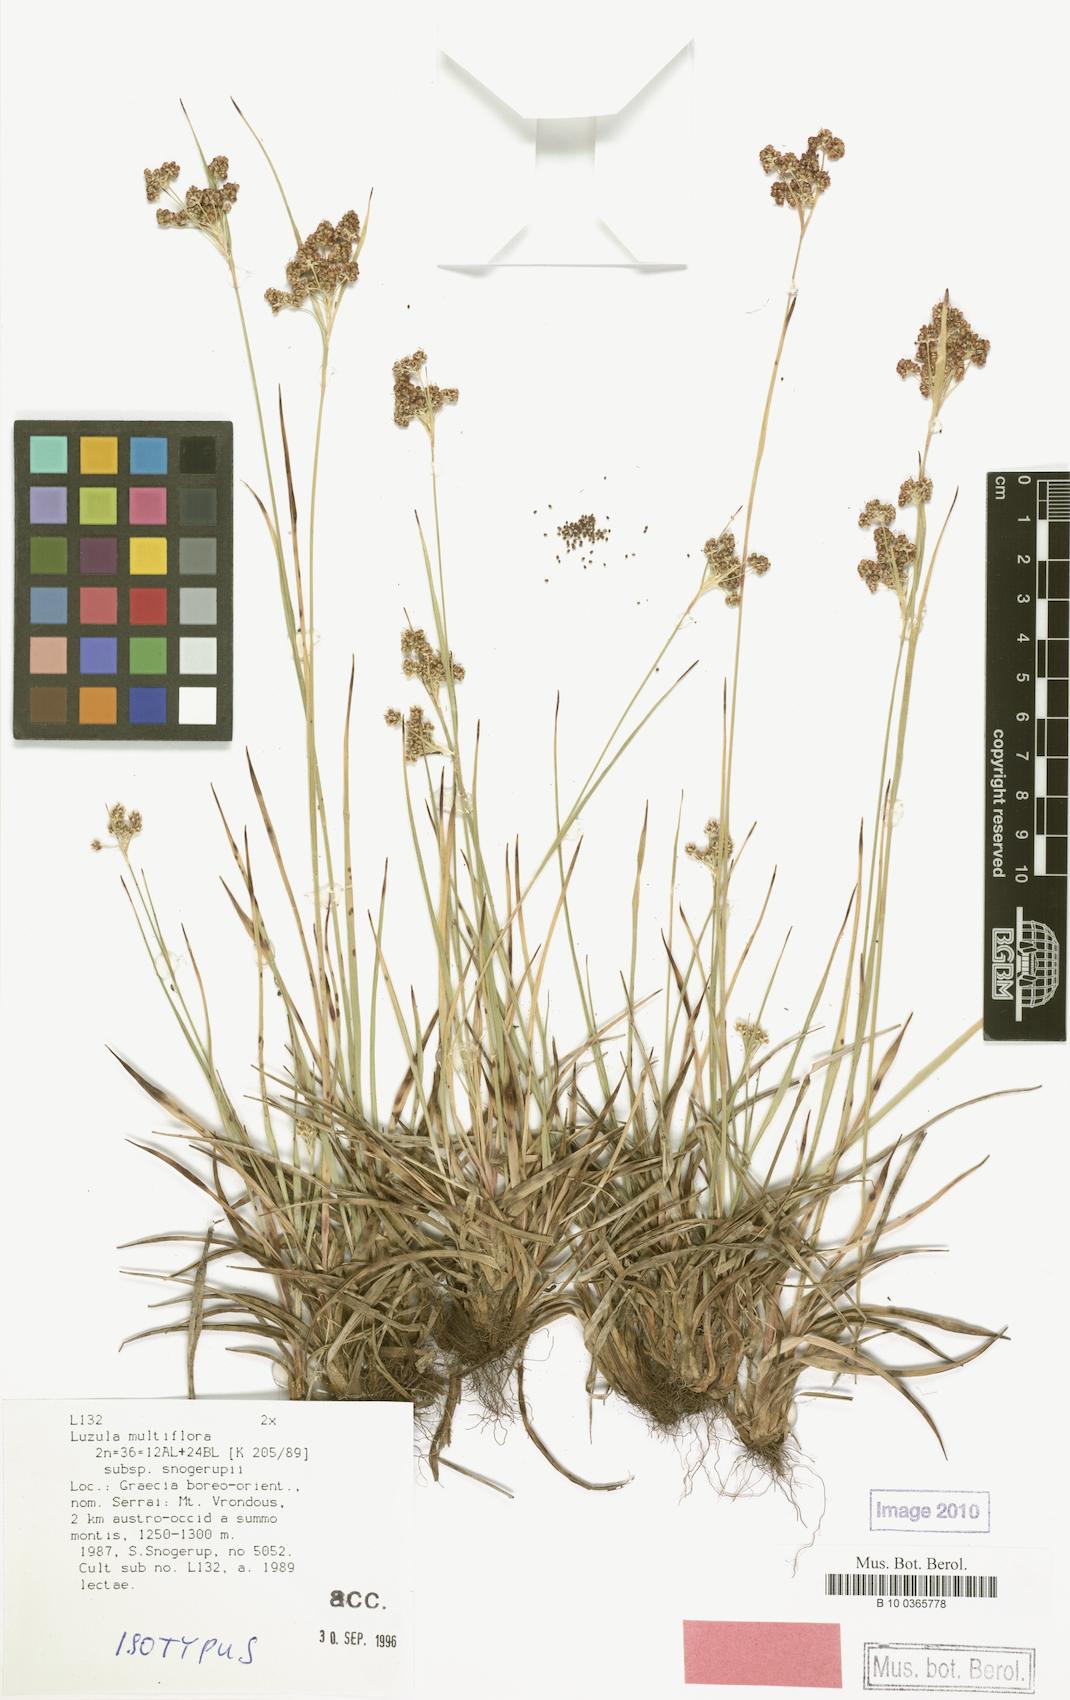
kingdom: Plantae
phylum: Tracheophyta
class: Liliopsida
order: Poales
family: Juncaceae
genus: Luzula
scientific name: Luzula multiflora
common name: Heath wood-rush
